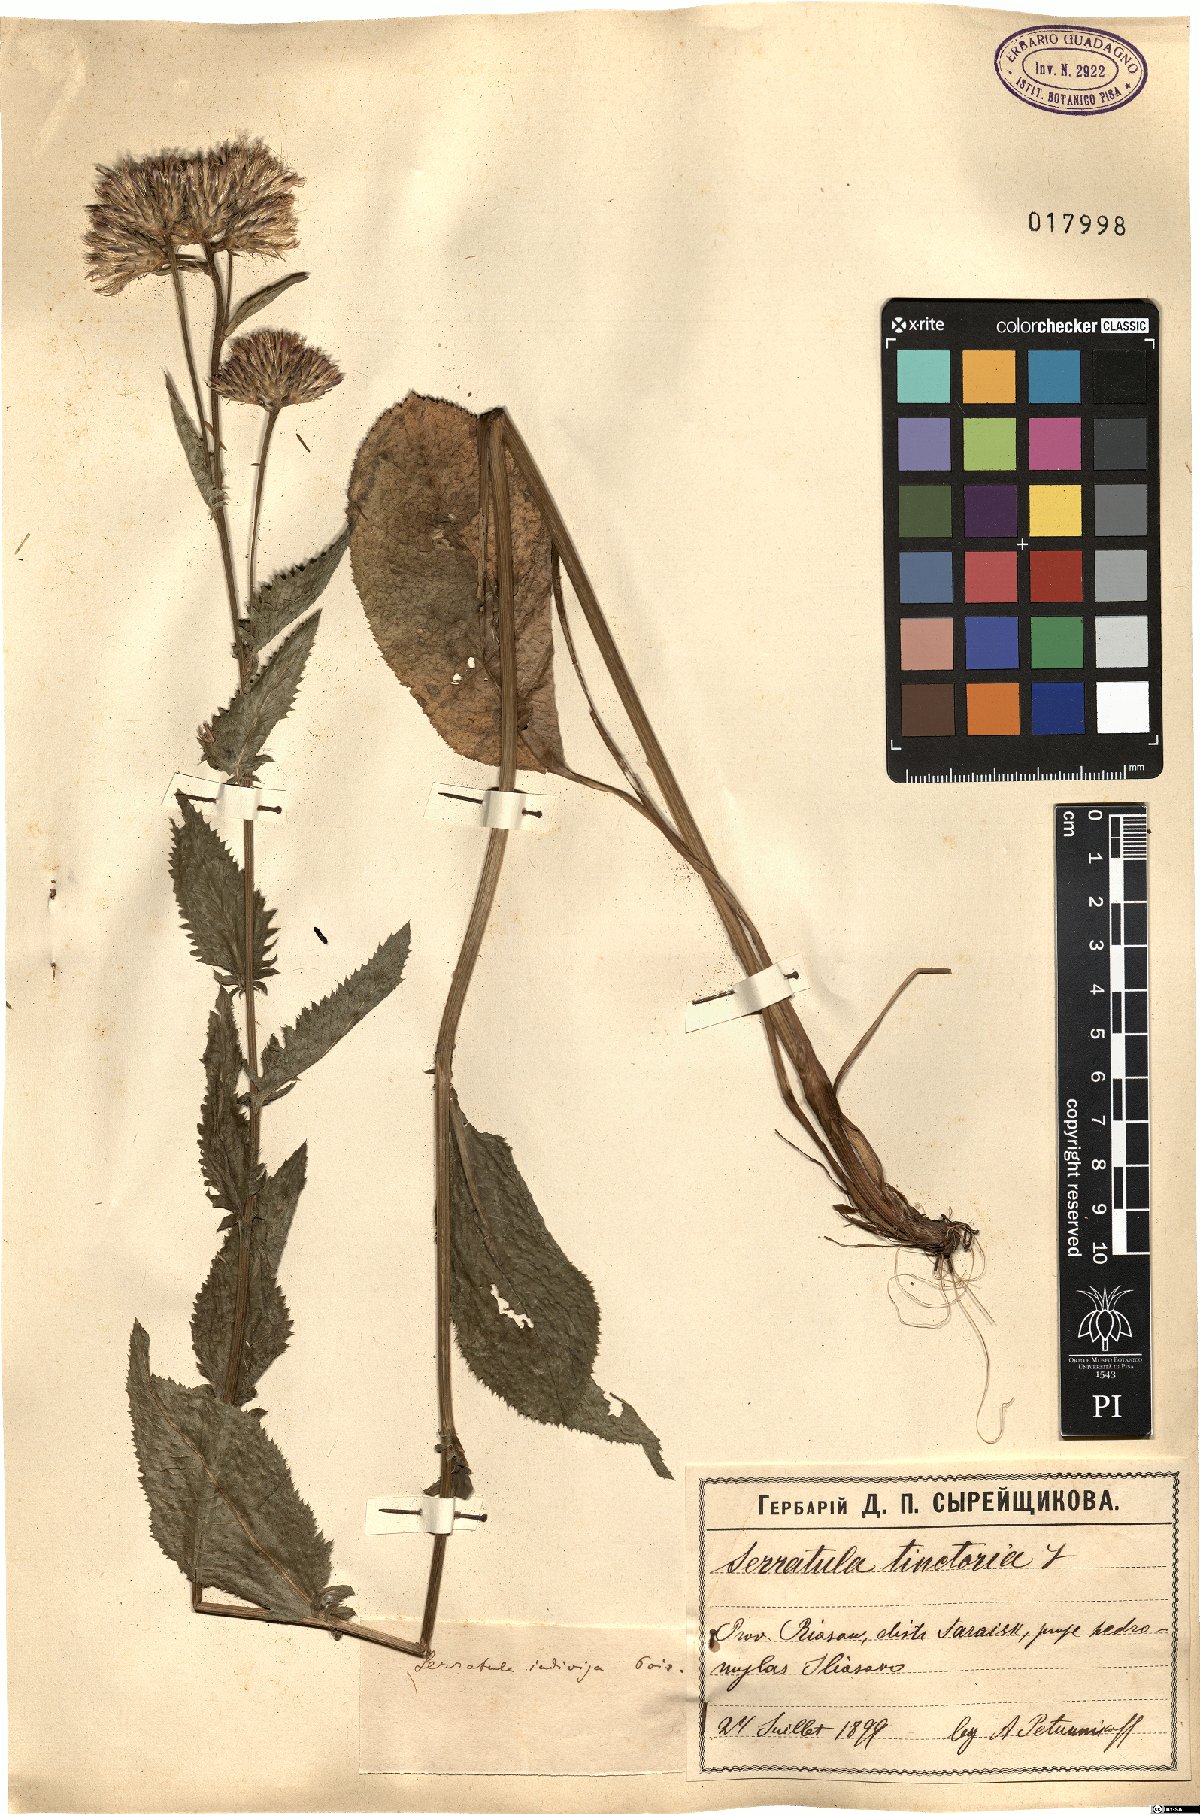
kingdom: Plantae
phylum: Tracheophyta
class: Magnoliopsida
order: Asterales
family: Asteraceae
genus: Serratula
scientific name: Serratula tinctoria
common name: Saw-wort
